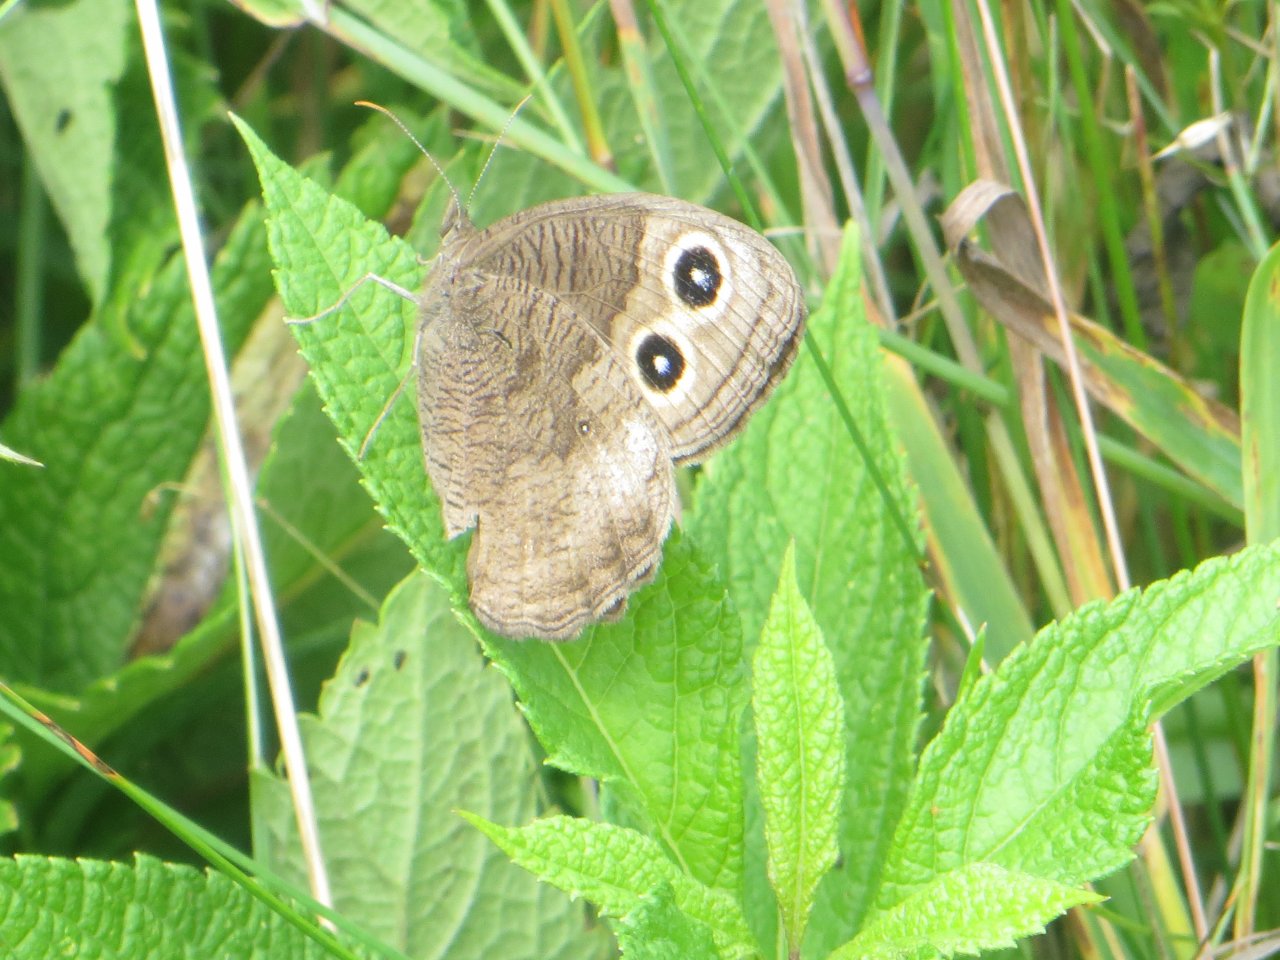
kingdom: Animalia
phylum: Arthropoda
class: Insecta
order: Lepidoptera
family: Nymphalidae
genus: Cercyonis
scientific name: Cercyonis pegala
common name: Common Wood-Nymph
